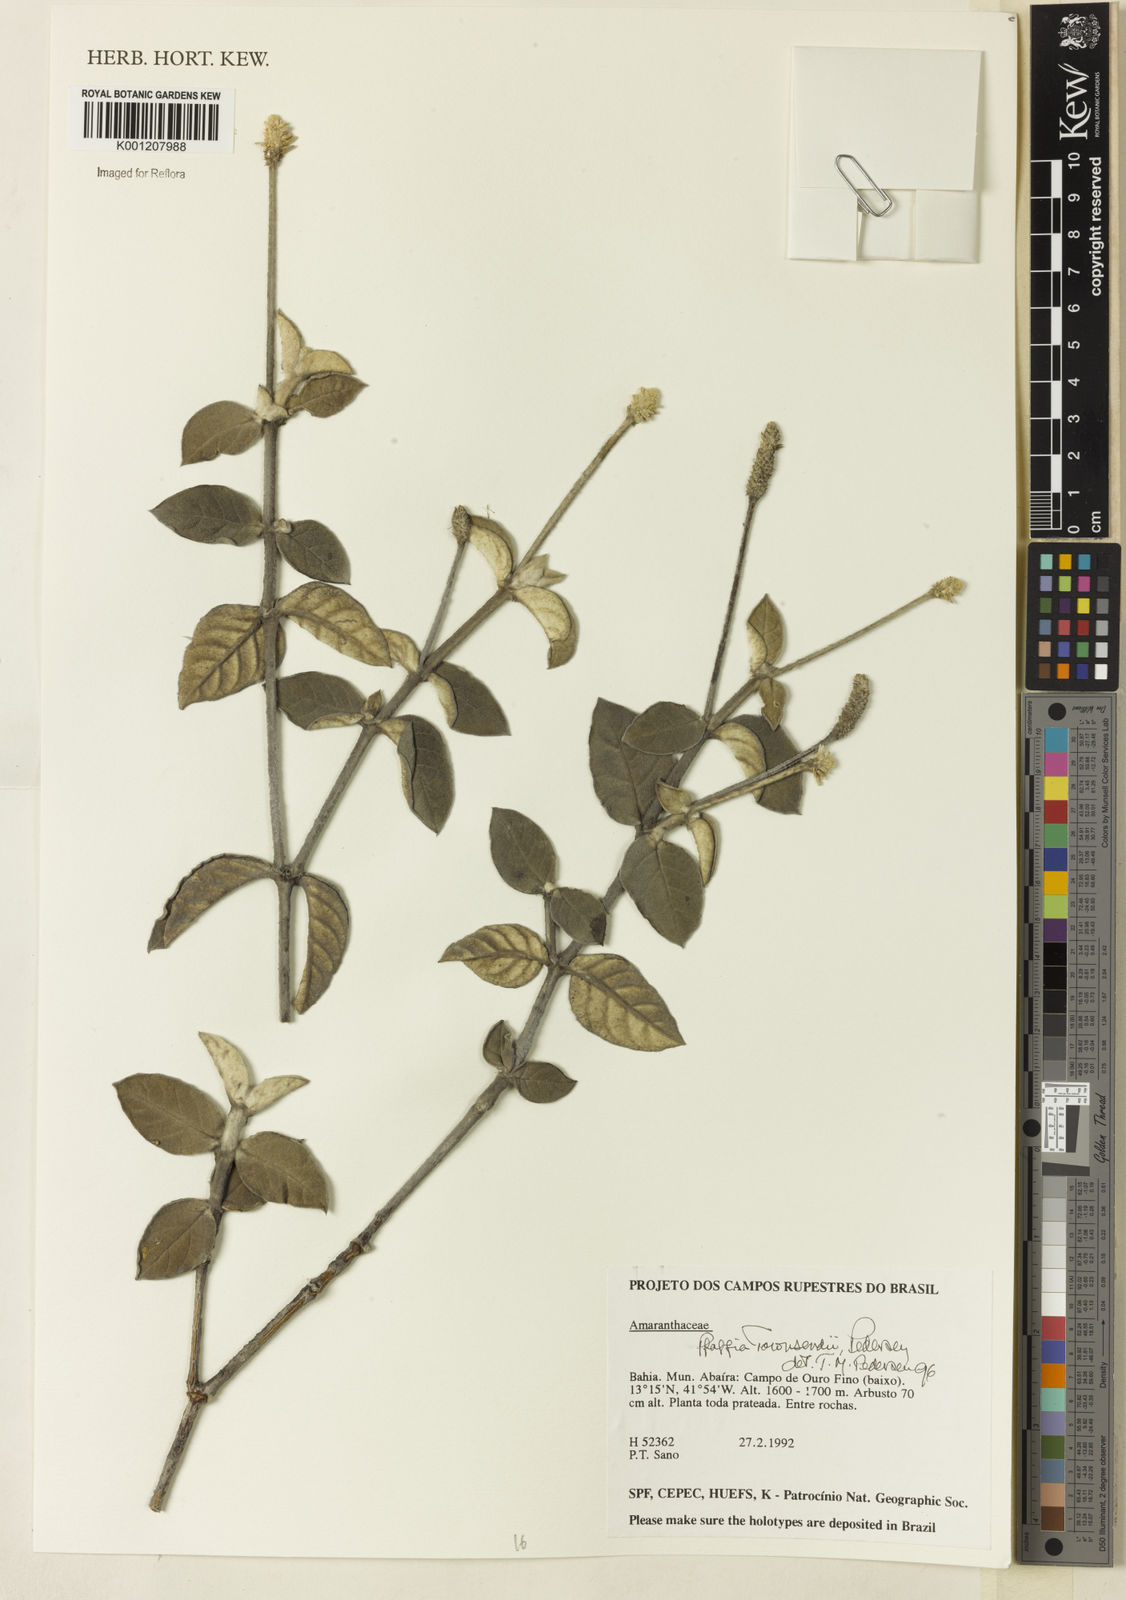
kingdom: Plantae
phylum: Tracheophyta
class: Magnoliopsida
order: Caryophyllales
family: Amaranthaceae
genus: Pfaffia
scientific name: Pfaffia townsendii
